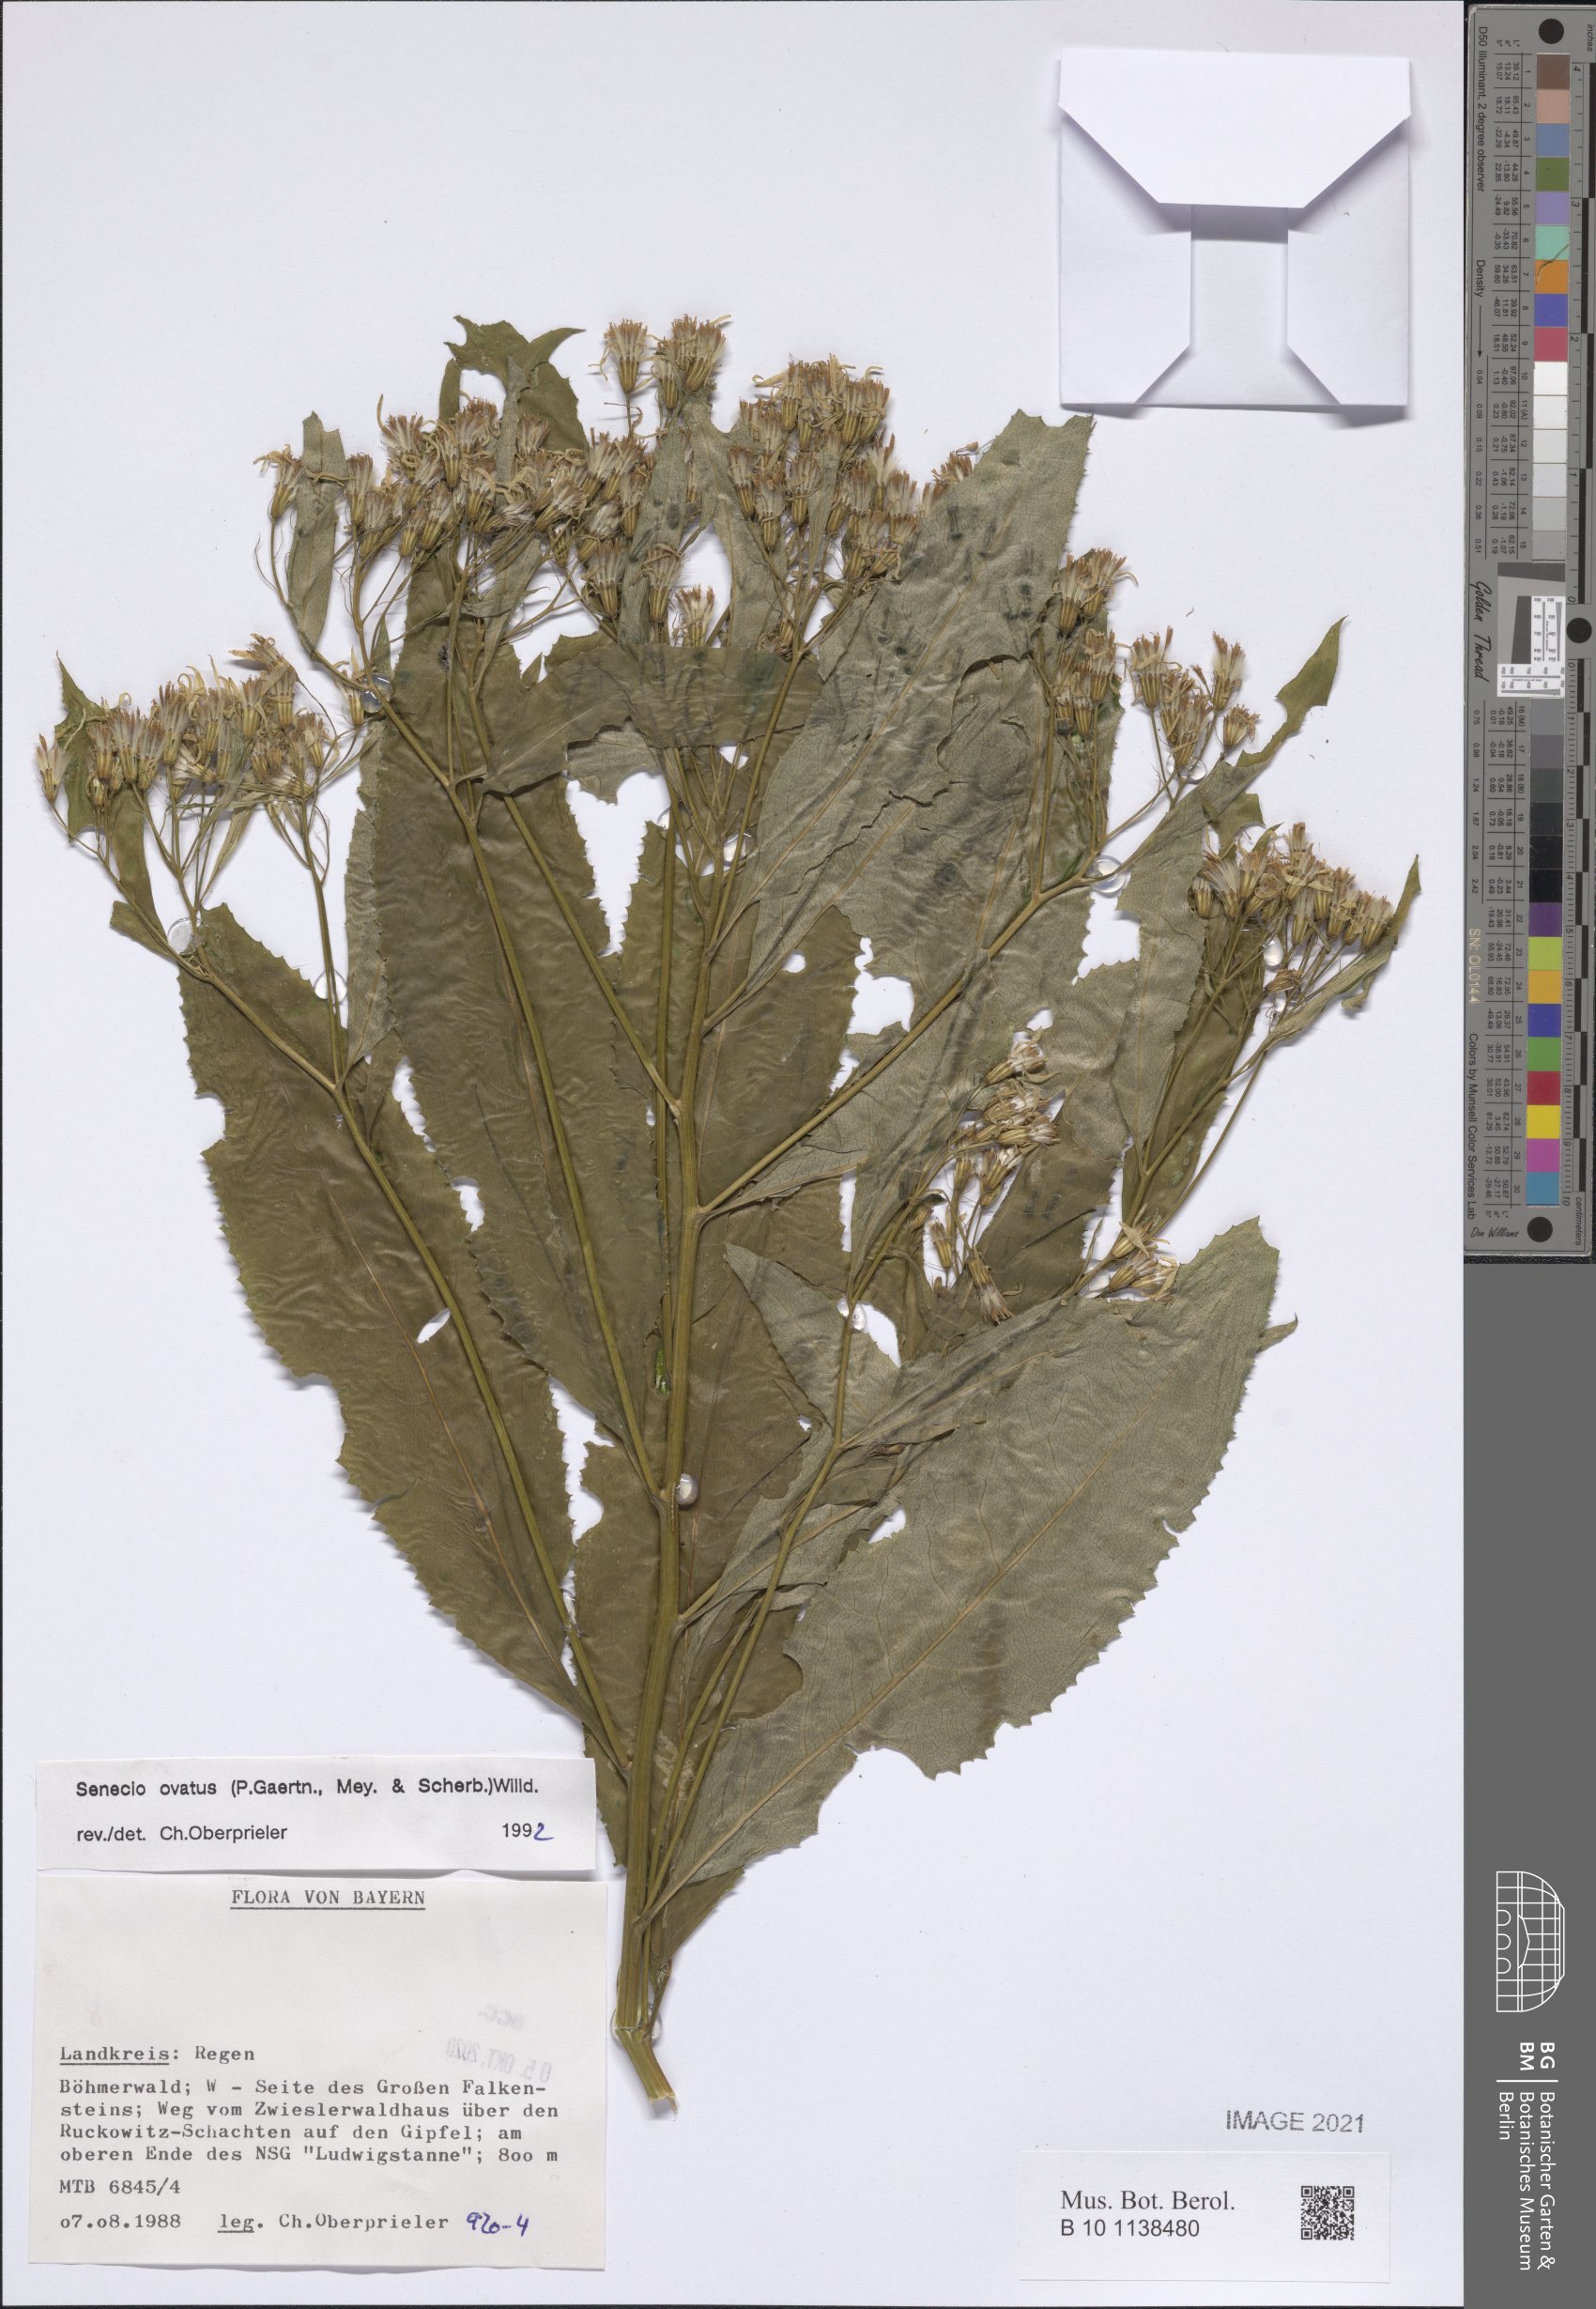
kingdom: Plantae
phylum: Tracheophyta
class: Magnoliopsida
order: Asterales
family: Asteraceae
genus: Senecio
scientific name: Senecio ovatus
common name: Wood ragwort
